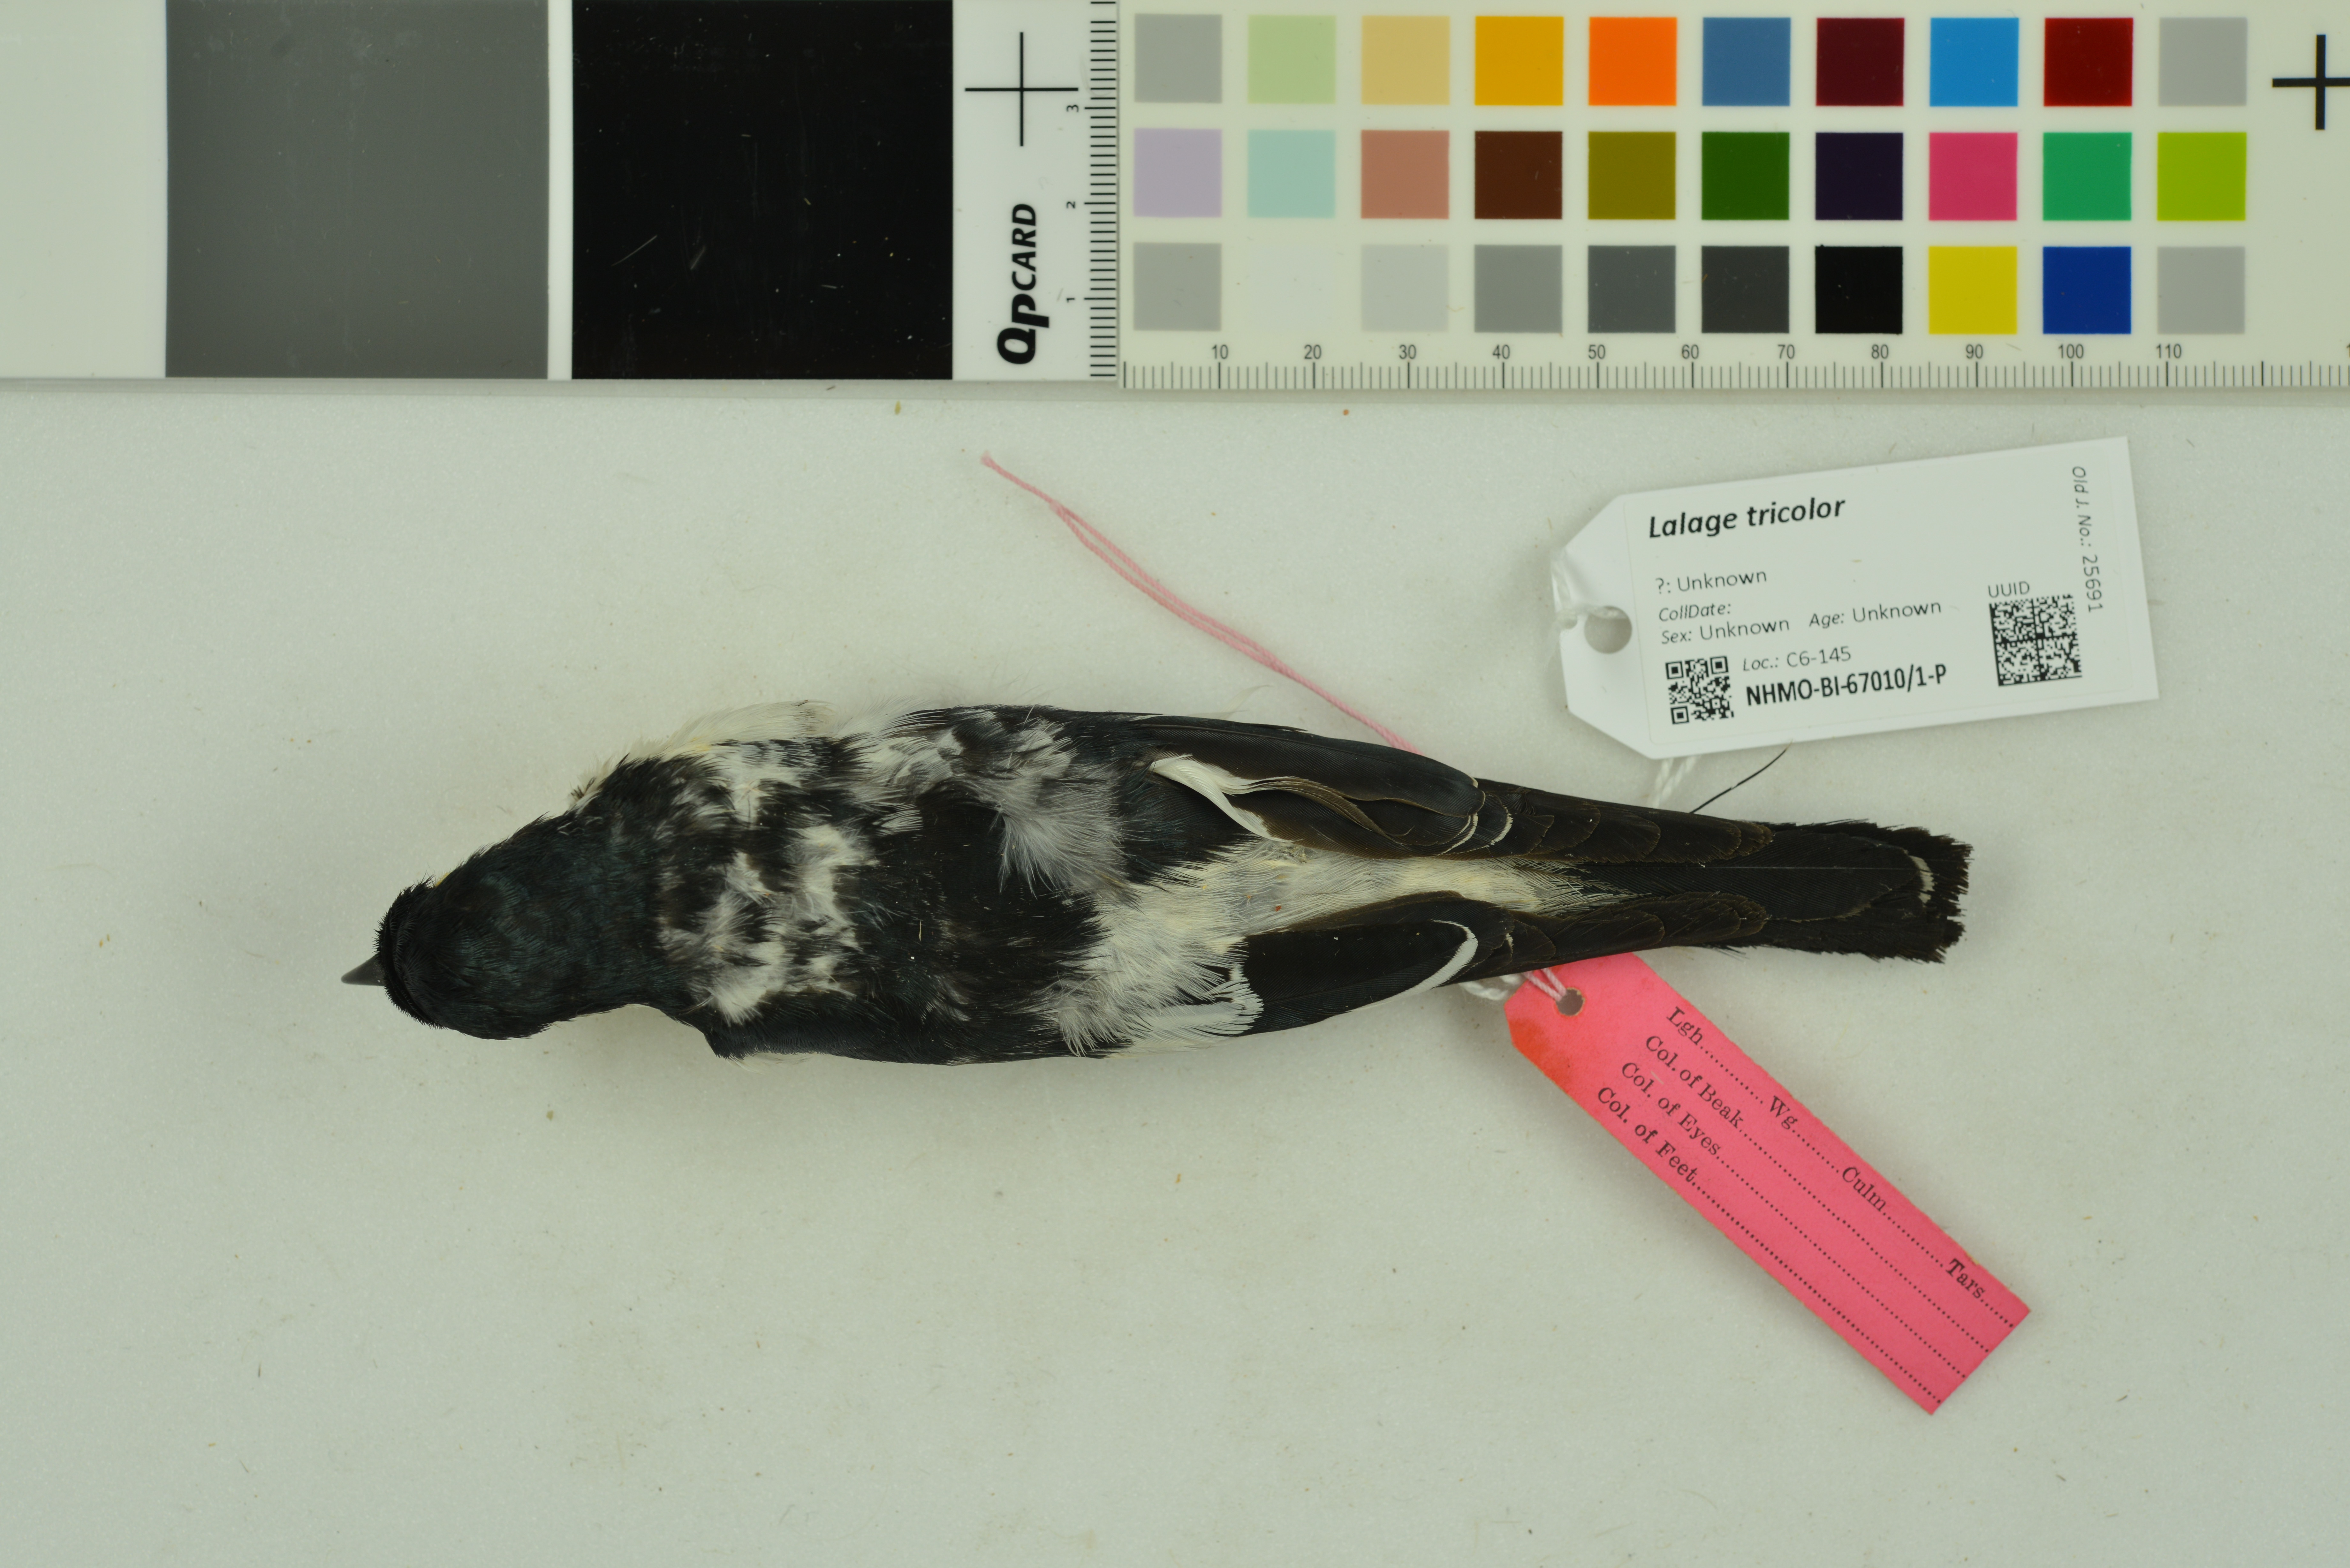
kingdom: Animalia
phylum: Chordata
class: Aves
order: Passeriformes
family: Campephagidae
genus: Lalage
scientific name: Lalage tricolor
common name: White-winged triller
